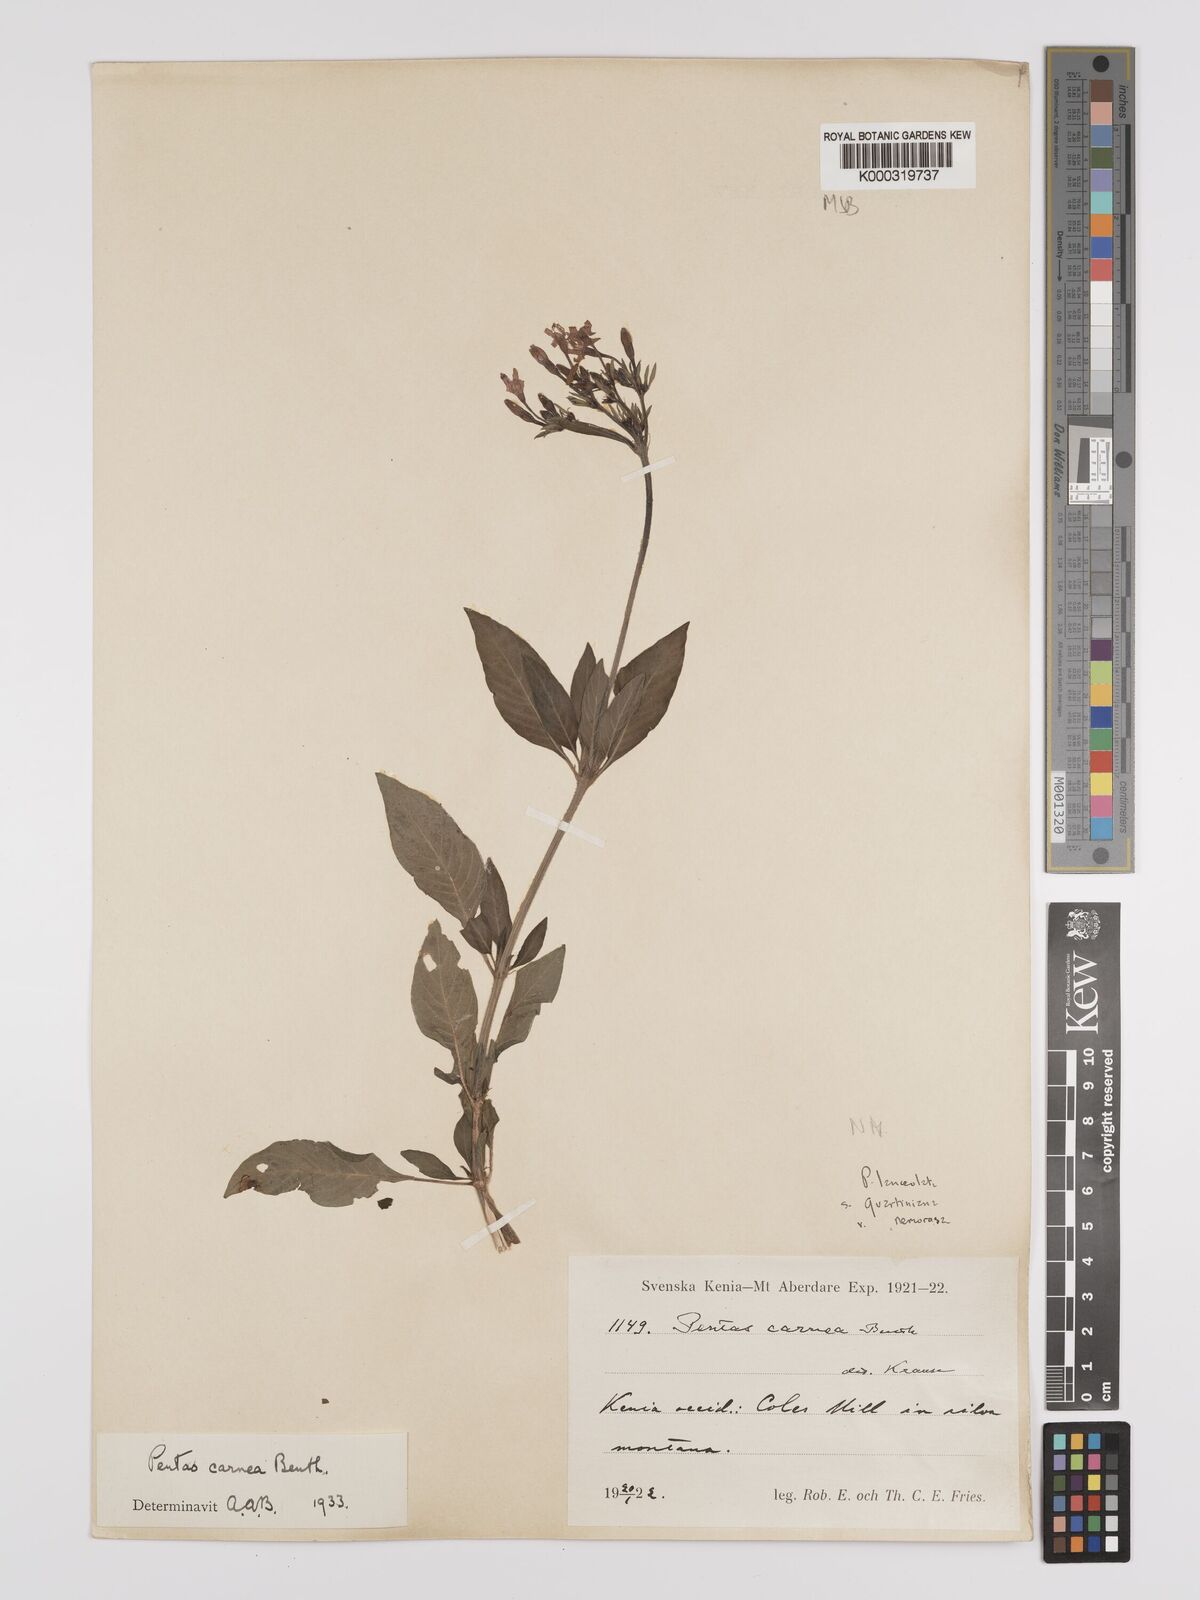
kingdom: Plantae
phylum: Tracheophyta
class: Magnoliopsida
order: Gentianales
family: Rubiaceae
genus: Pentas
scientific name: Pentas lanceolata
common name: Egyptian starcluster
